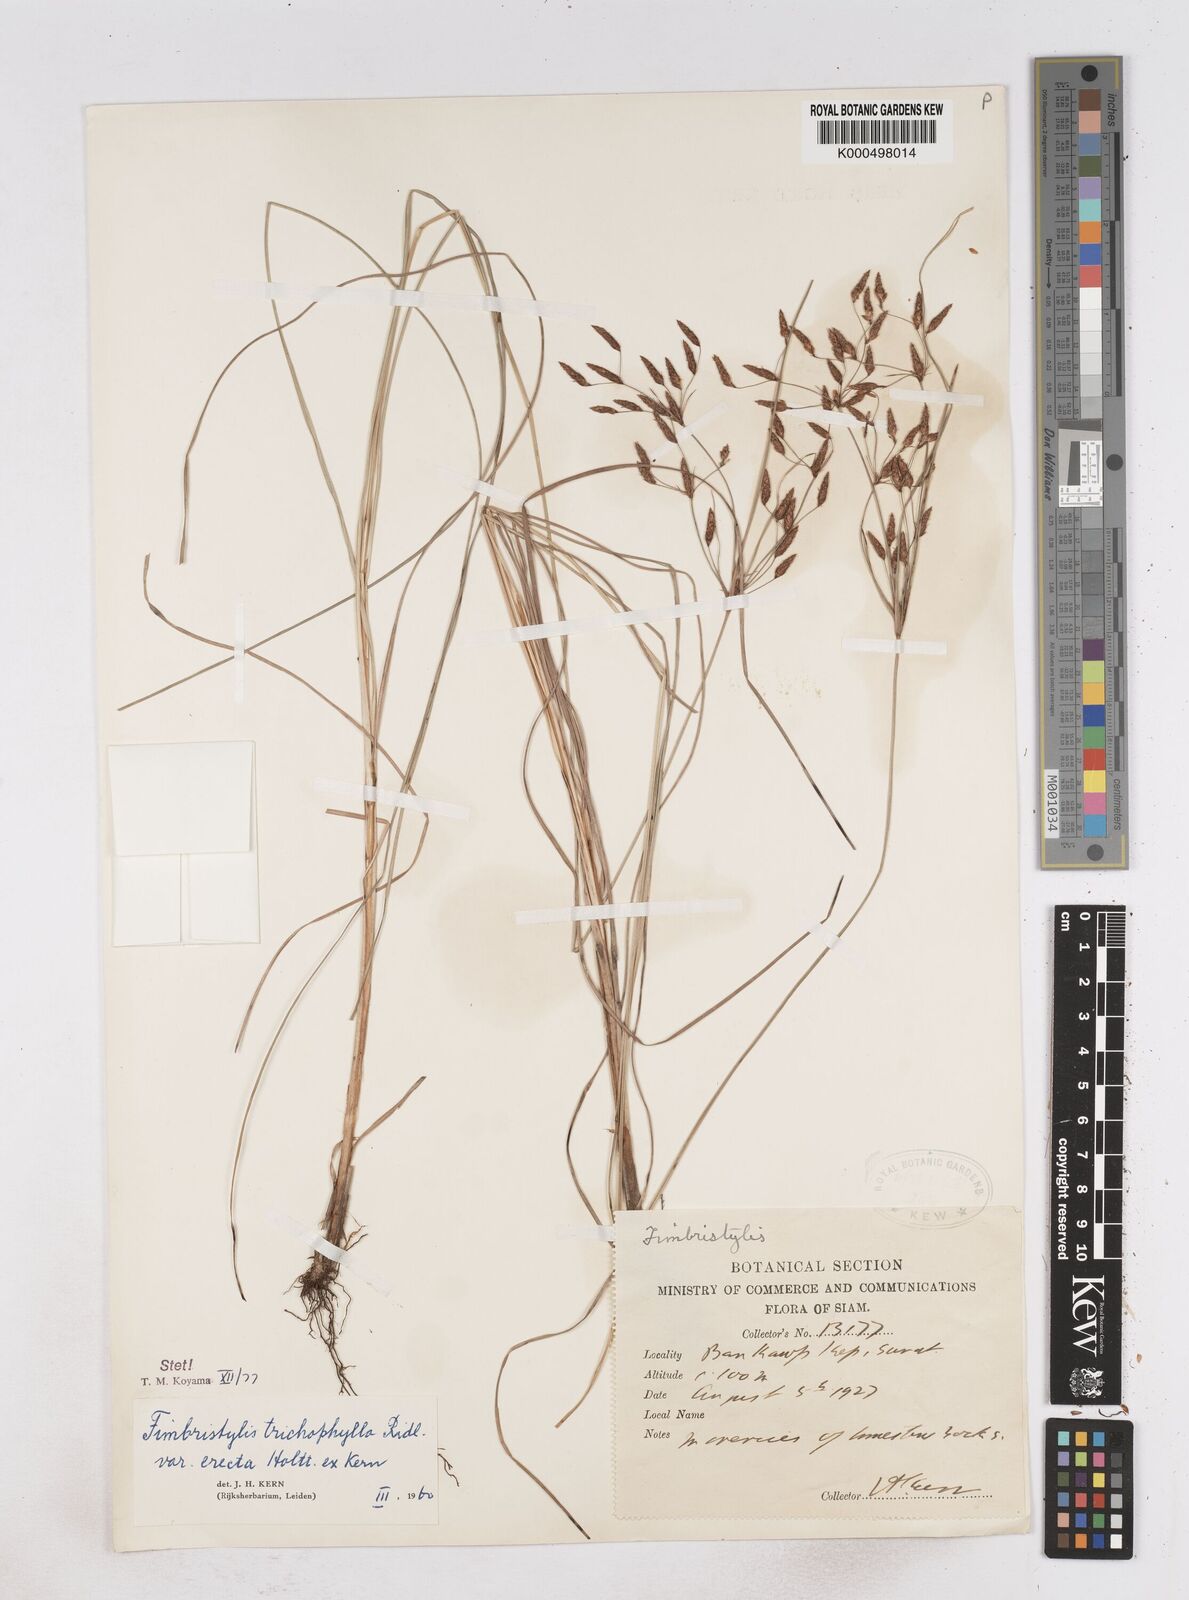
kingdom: Plantae
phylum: Tracheophyta
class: Liliopsida
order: Poales
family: Cyperaceae
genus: Fimbristylis
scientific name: Fimbristylis trichophylla
